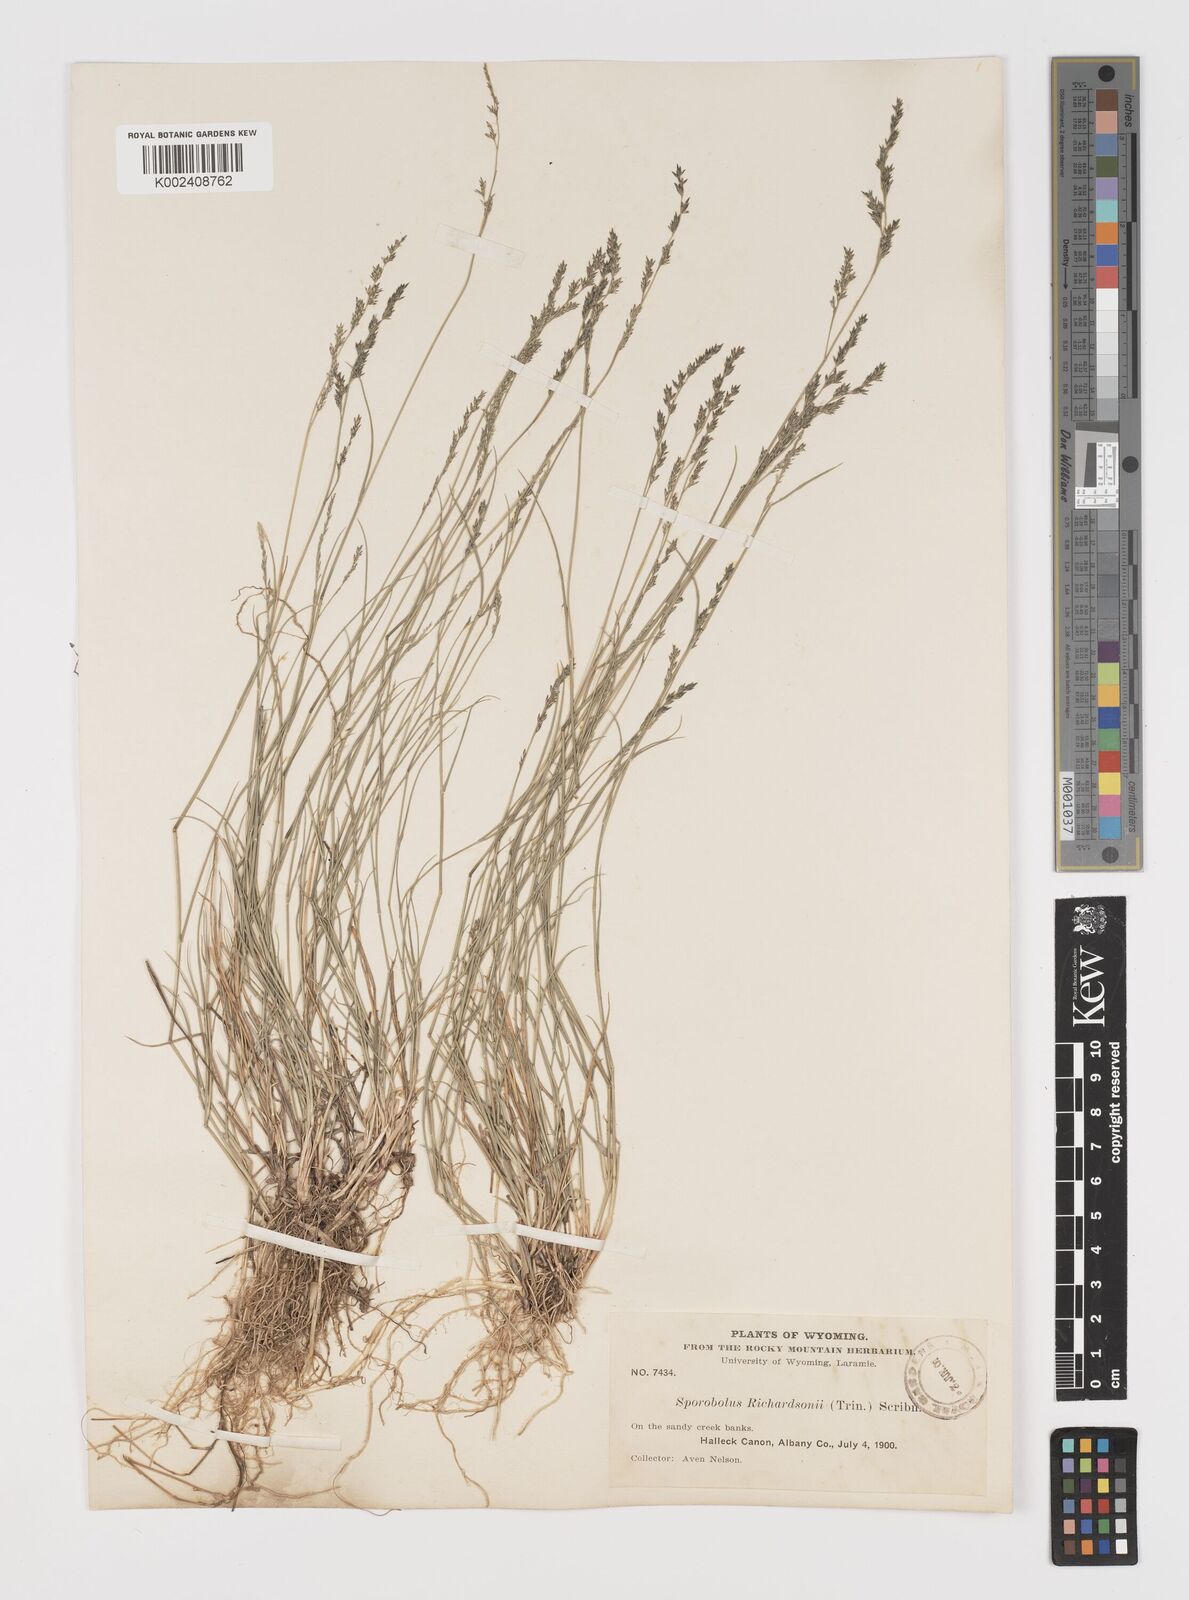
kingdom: Plantae
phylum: Tracheophyta
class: Liliopsida
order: Poales
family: Poaceae
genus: Muhlenbergia
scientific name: Muhlenbergia richardsonis
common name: Mat muhly
